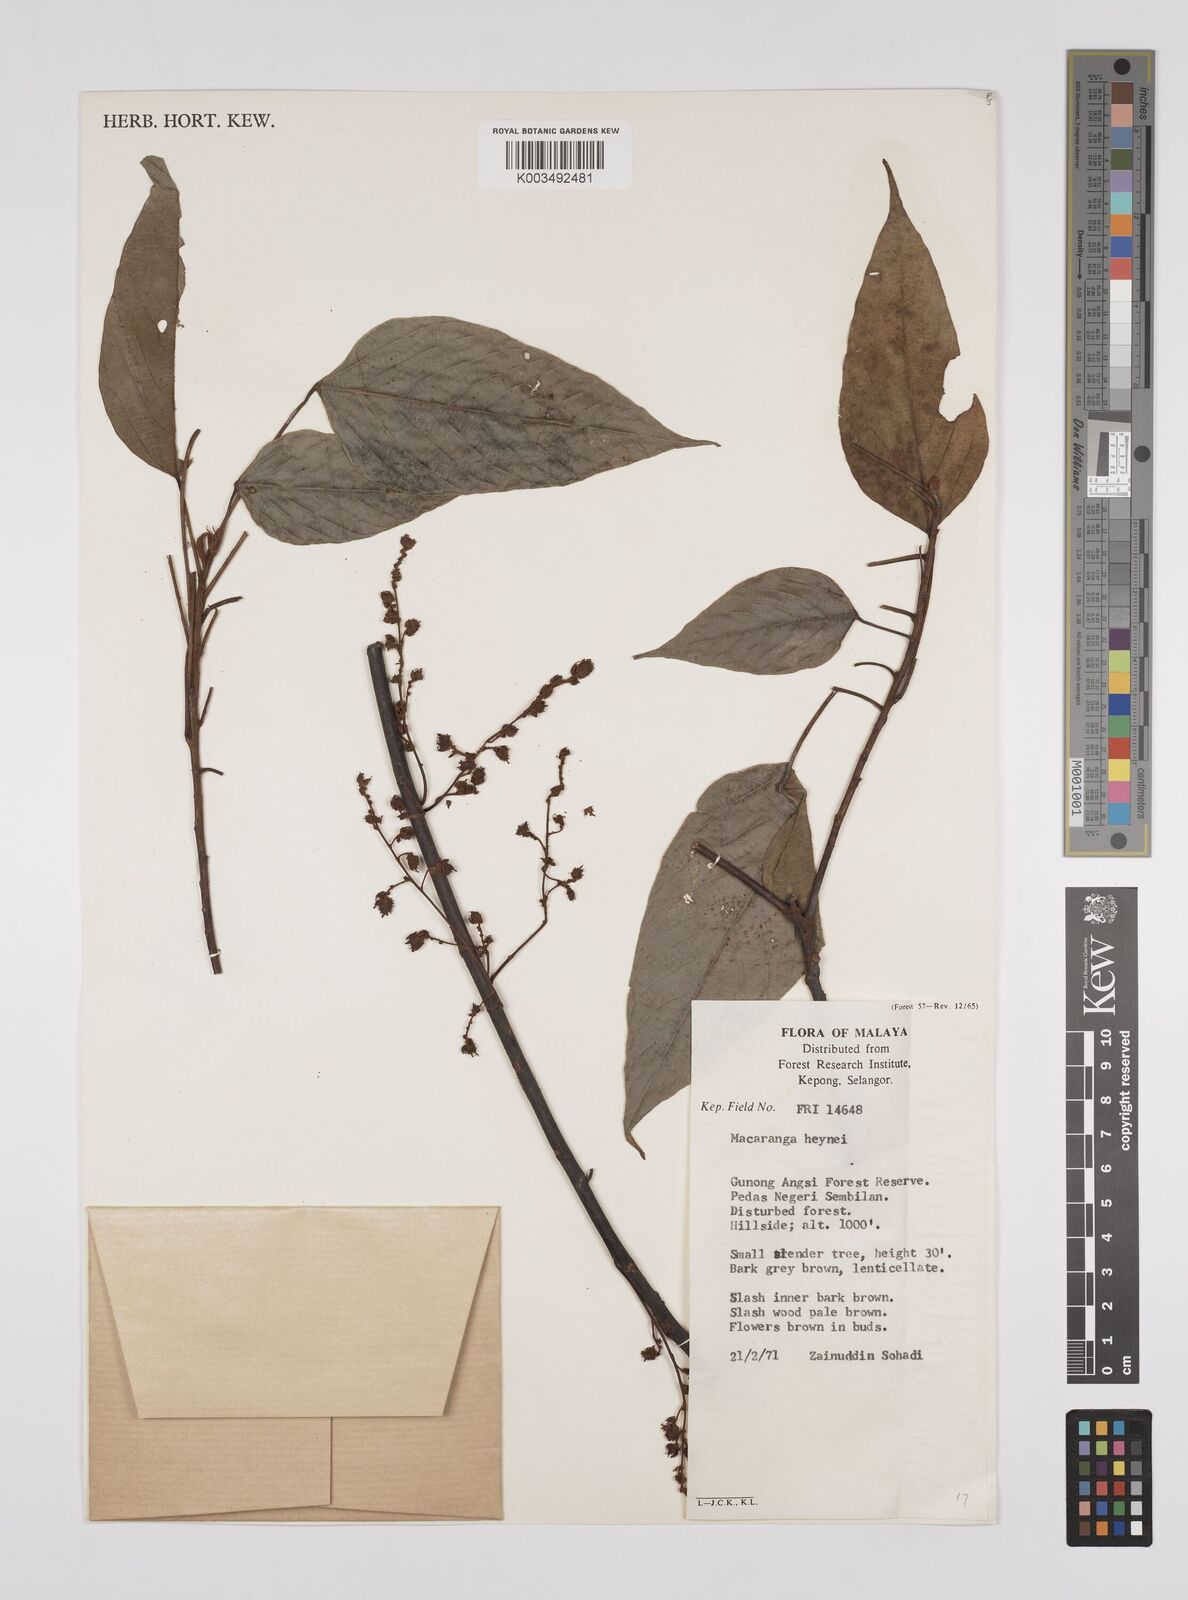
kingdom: Plantae
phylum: Tracheophyta
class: Magnoliopsida
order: Malpighiales
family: Euphorbiaceae
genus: Macaranga
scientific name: Macaranga heynei
